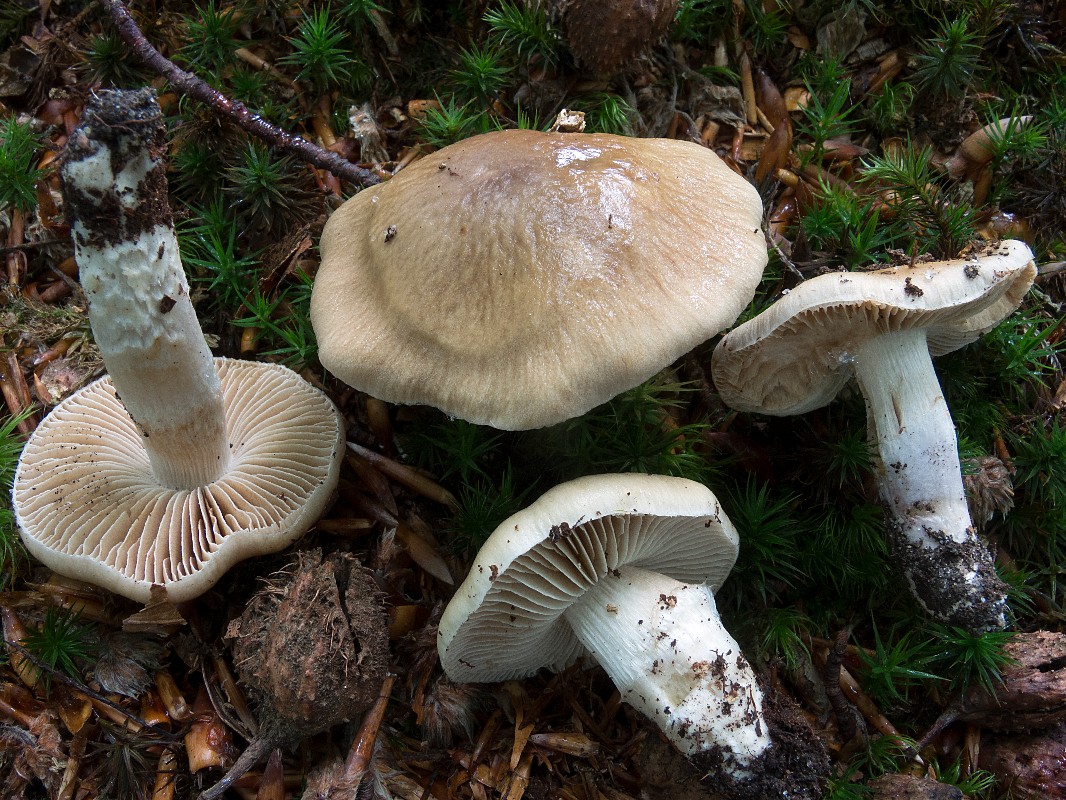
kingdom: Fungi
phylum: Basidiomycota
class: Agaricomycetes
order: Agaricales
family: Cortinariaceae
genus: Cortinarius
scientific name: Cortinarius elatior
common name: høj slørhat
